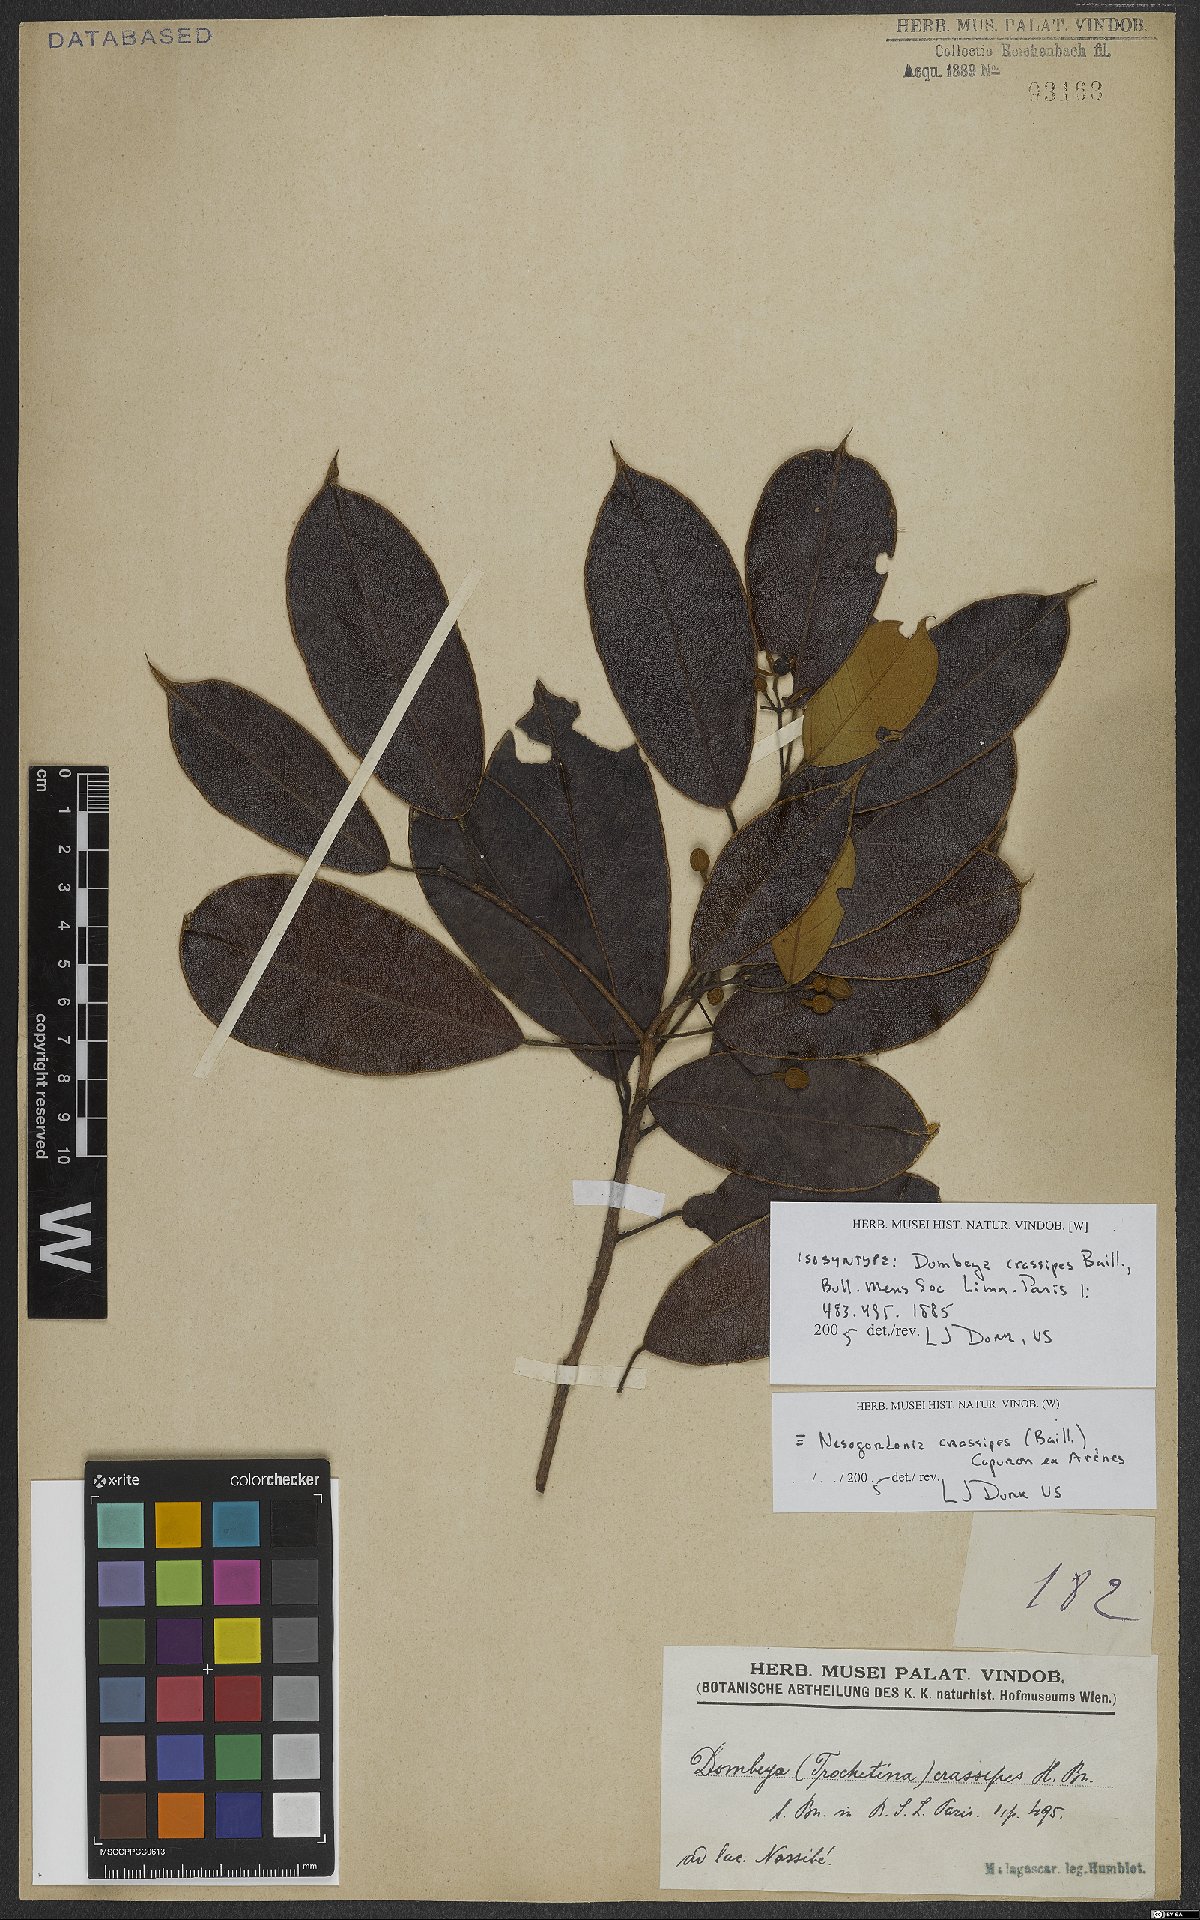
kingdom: Plantae
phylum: Tracheophyta
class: Magnoliopsida
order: Malvales
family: Malvaceae
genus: Nesogordonia
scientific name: Nesogordonia crassipes
